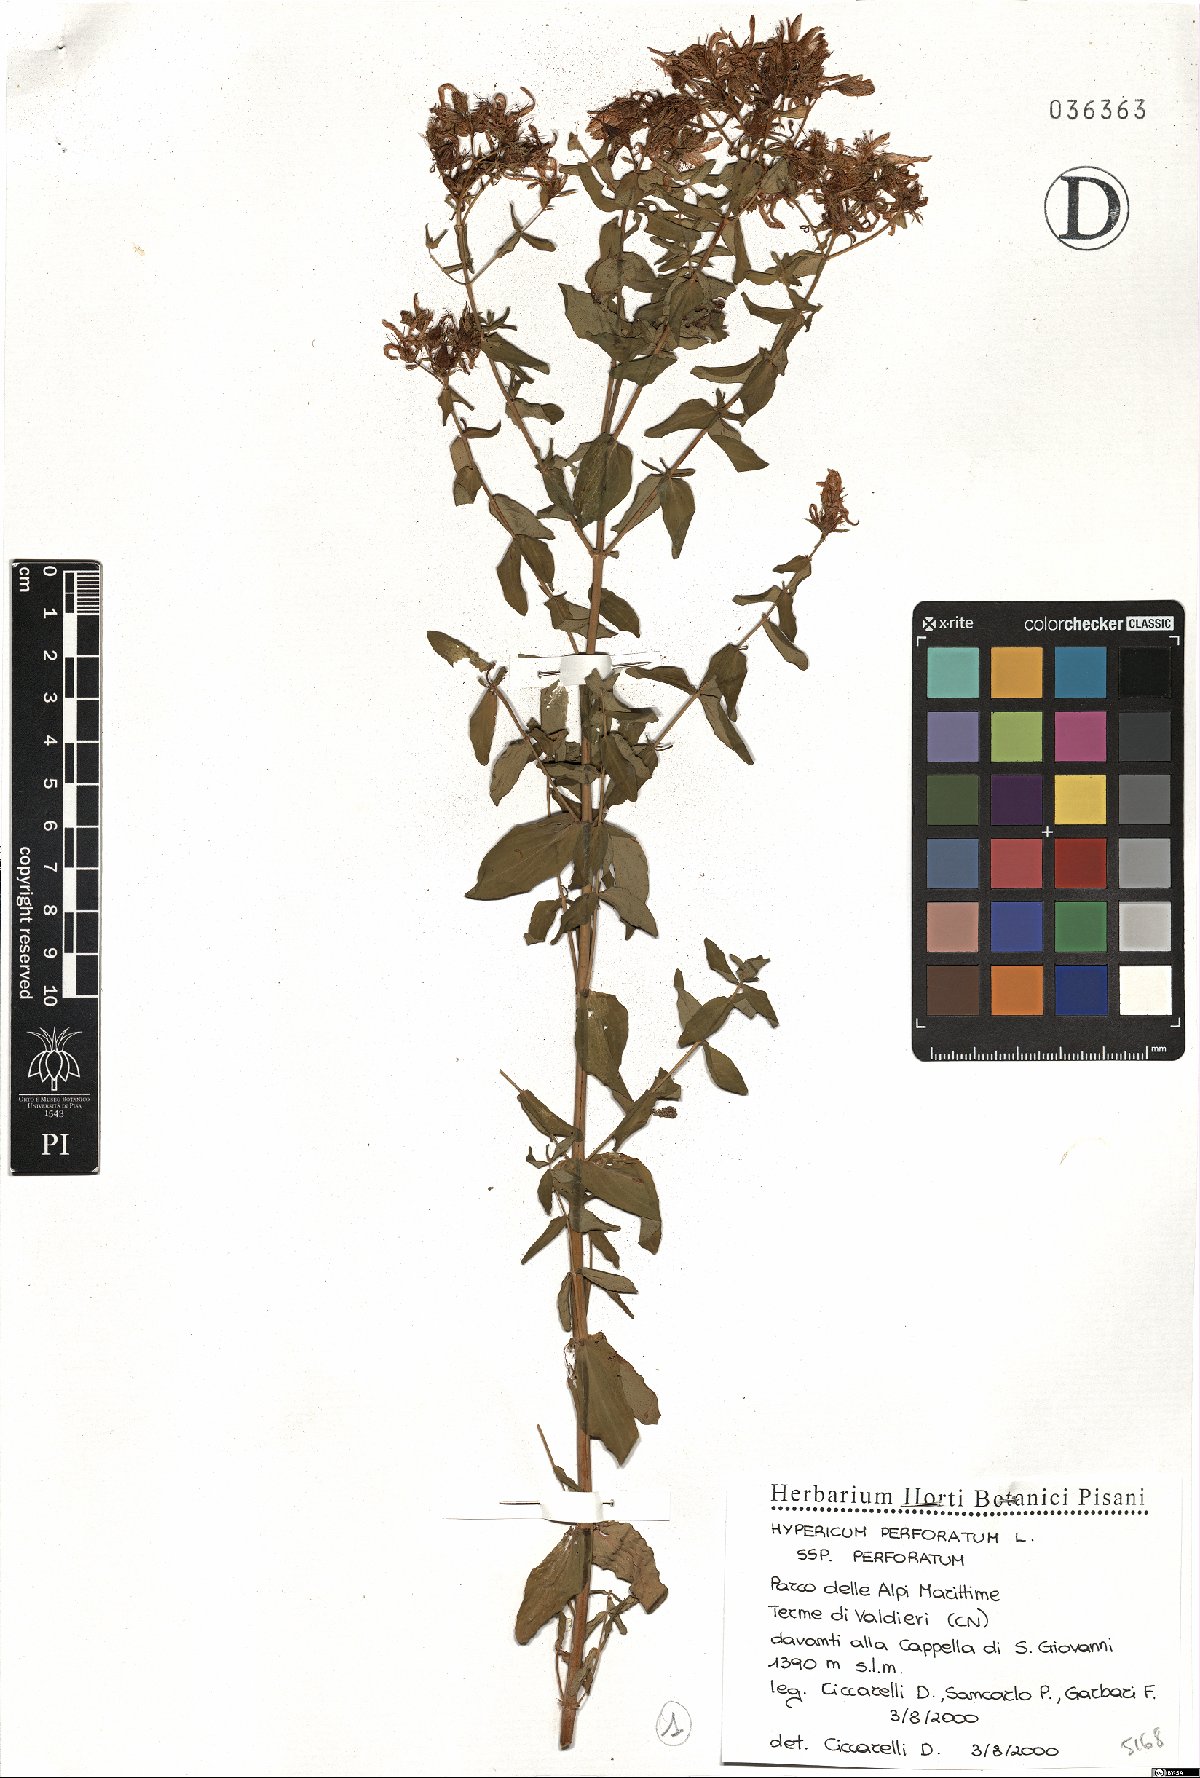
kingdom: Plantae
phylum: Tracheophyta
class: Magnoliopsida
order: Malpighiales
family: Hypericaceae
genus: Hypericum
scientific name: Hypericum perforatum
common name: Common st. johnswort
